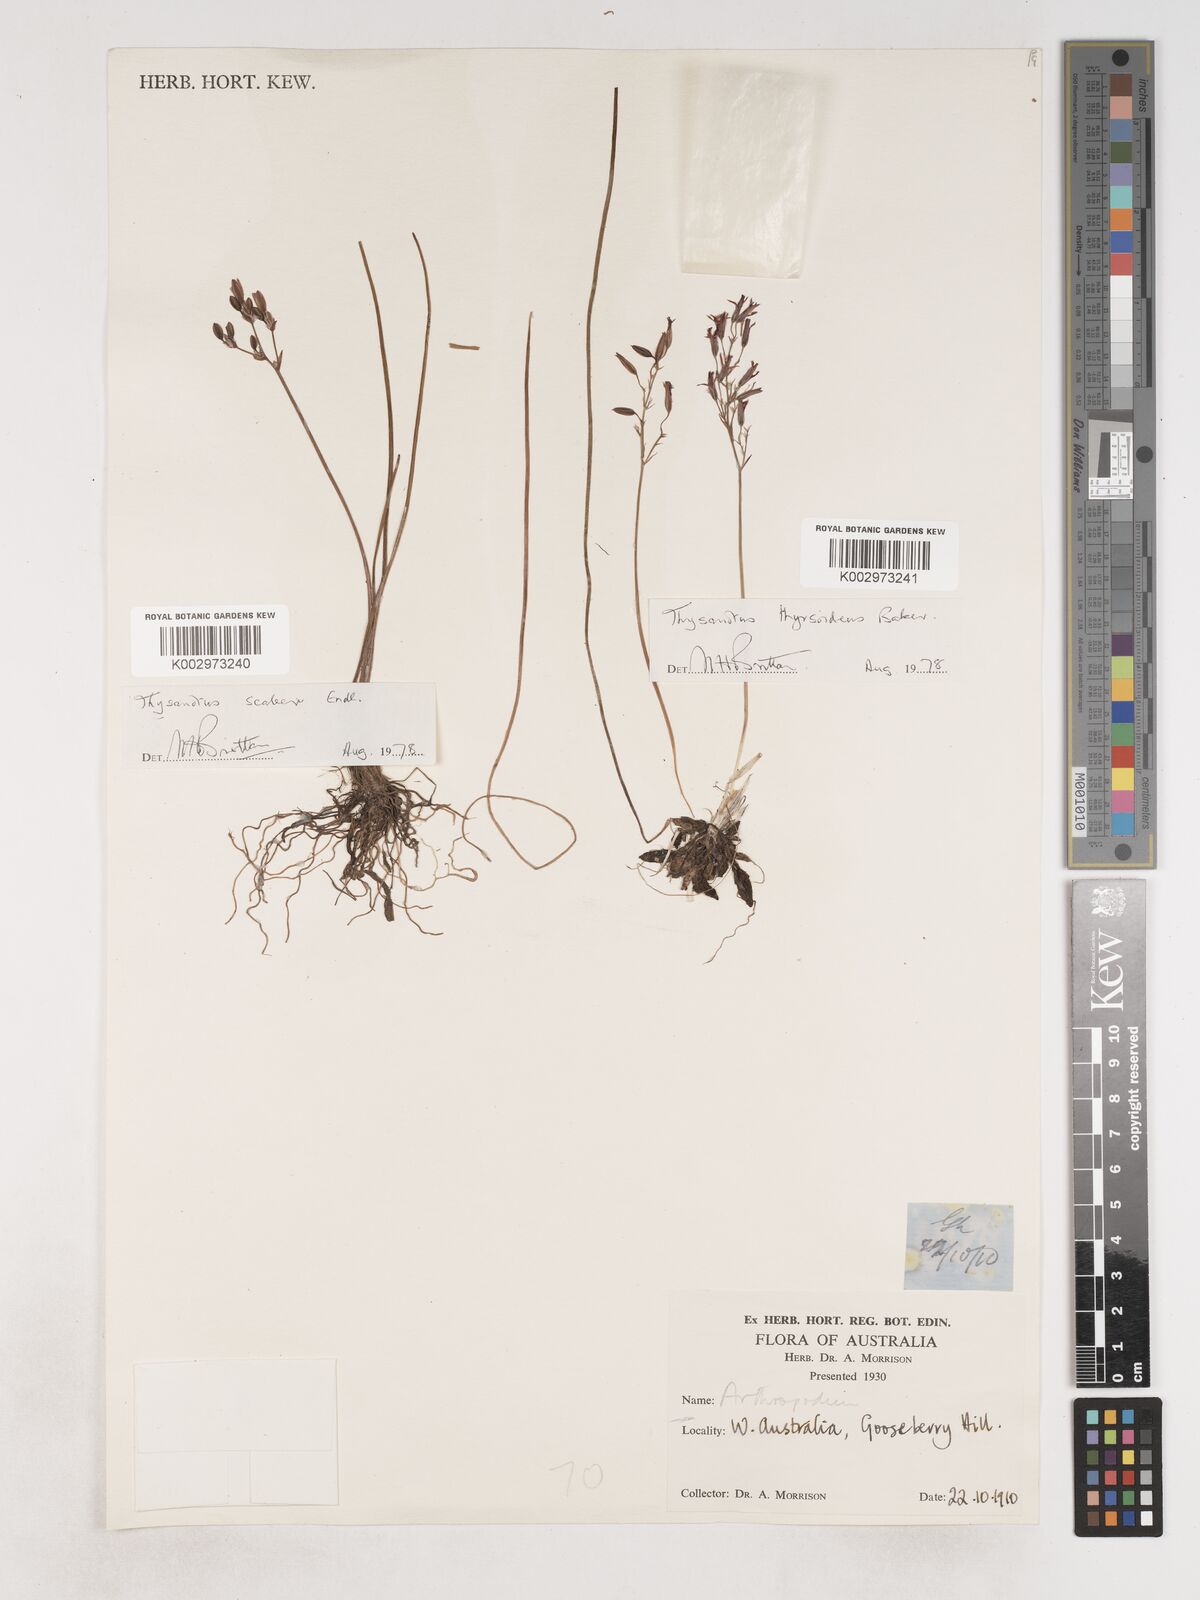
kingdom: Plantae
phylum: Tracheophyta
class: Liliopsida
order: Asparagales
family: Asparagaceae
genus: Thysanotus
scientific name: Thysanotus scaber
